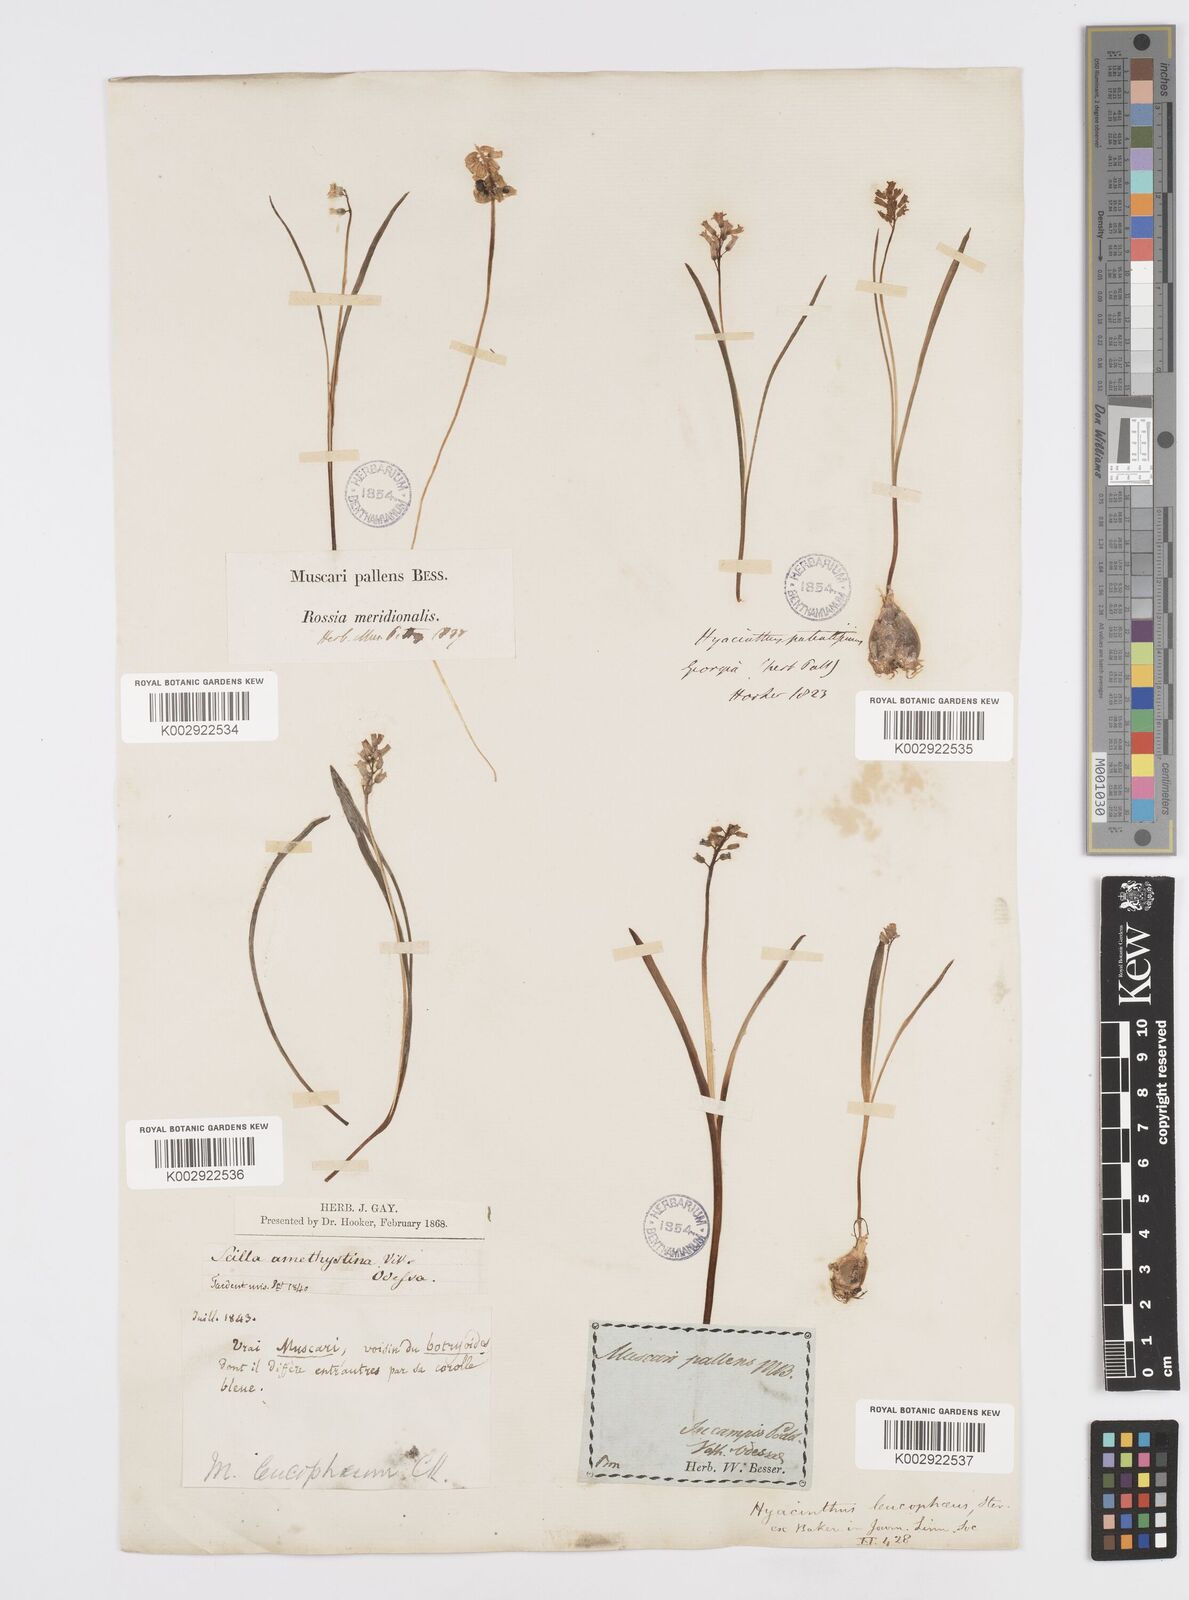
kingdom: Plantae
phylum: Tracheophyta
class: Liliopsida
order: Asparagales
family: Asparagaceae
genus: Hyacinthella
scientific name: Hyacinthella leucophaea
